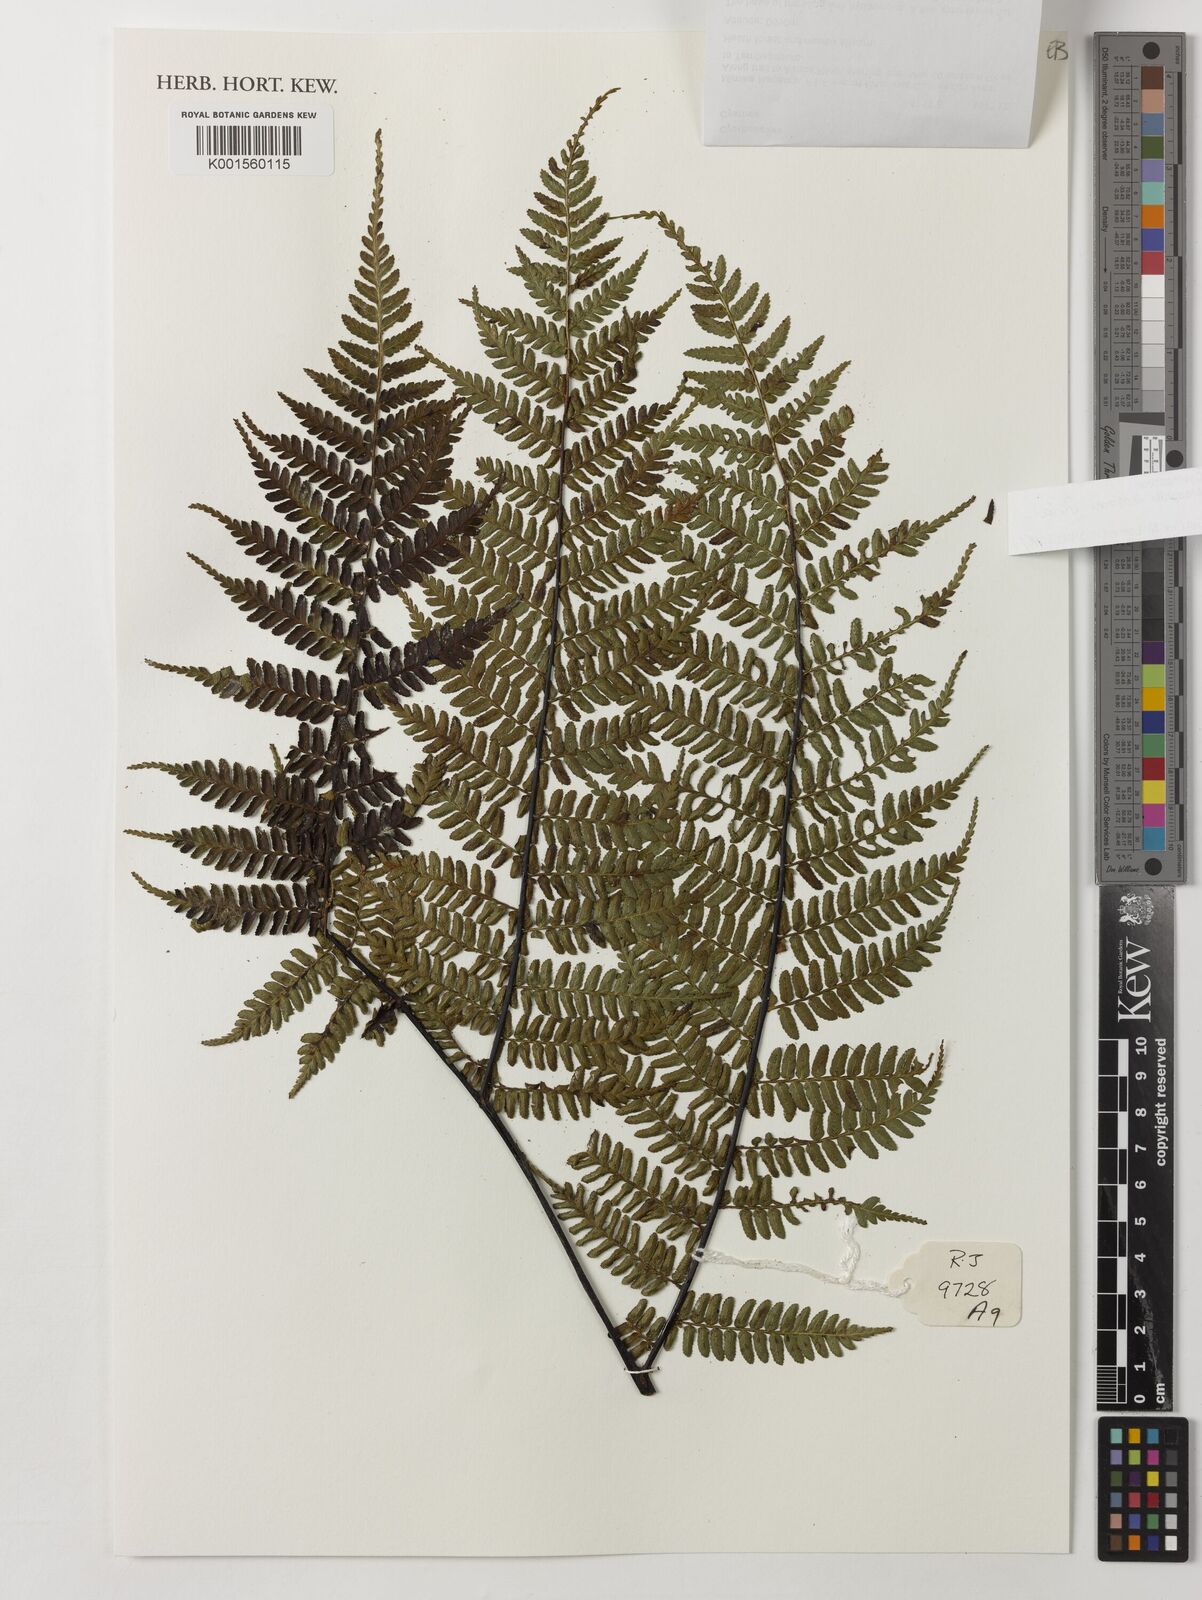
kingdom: Plantae
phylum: Tracheophyta
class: Polypodiopsida
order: Cyatheales
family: Cyatheaceae
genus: Gymnosphaera
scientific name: Gymnosphaera hornei
